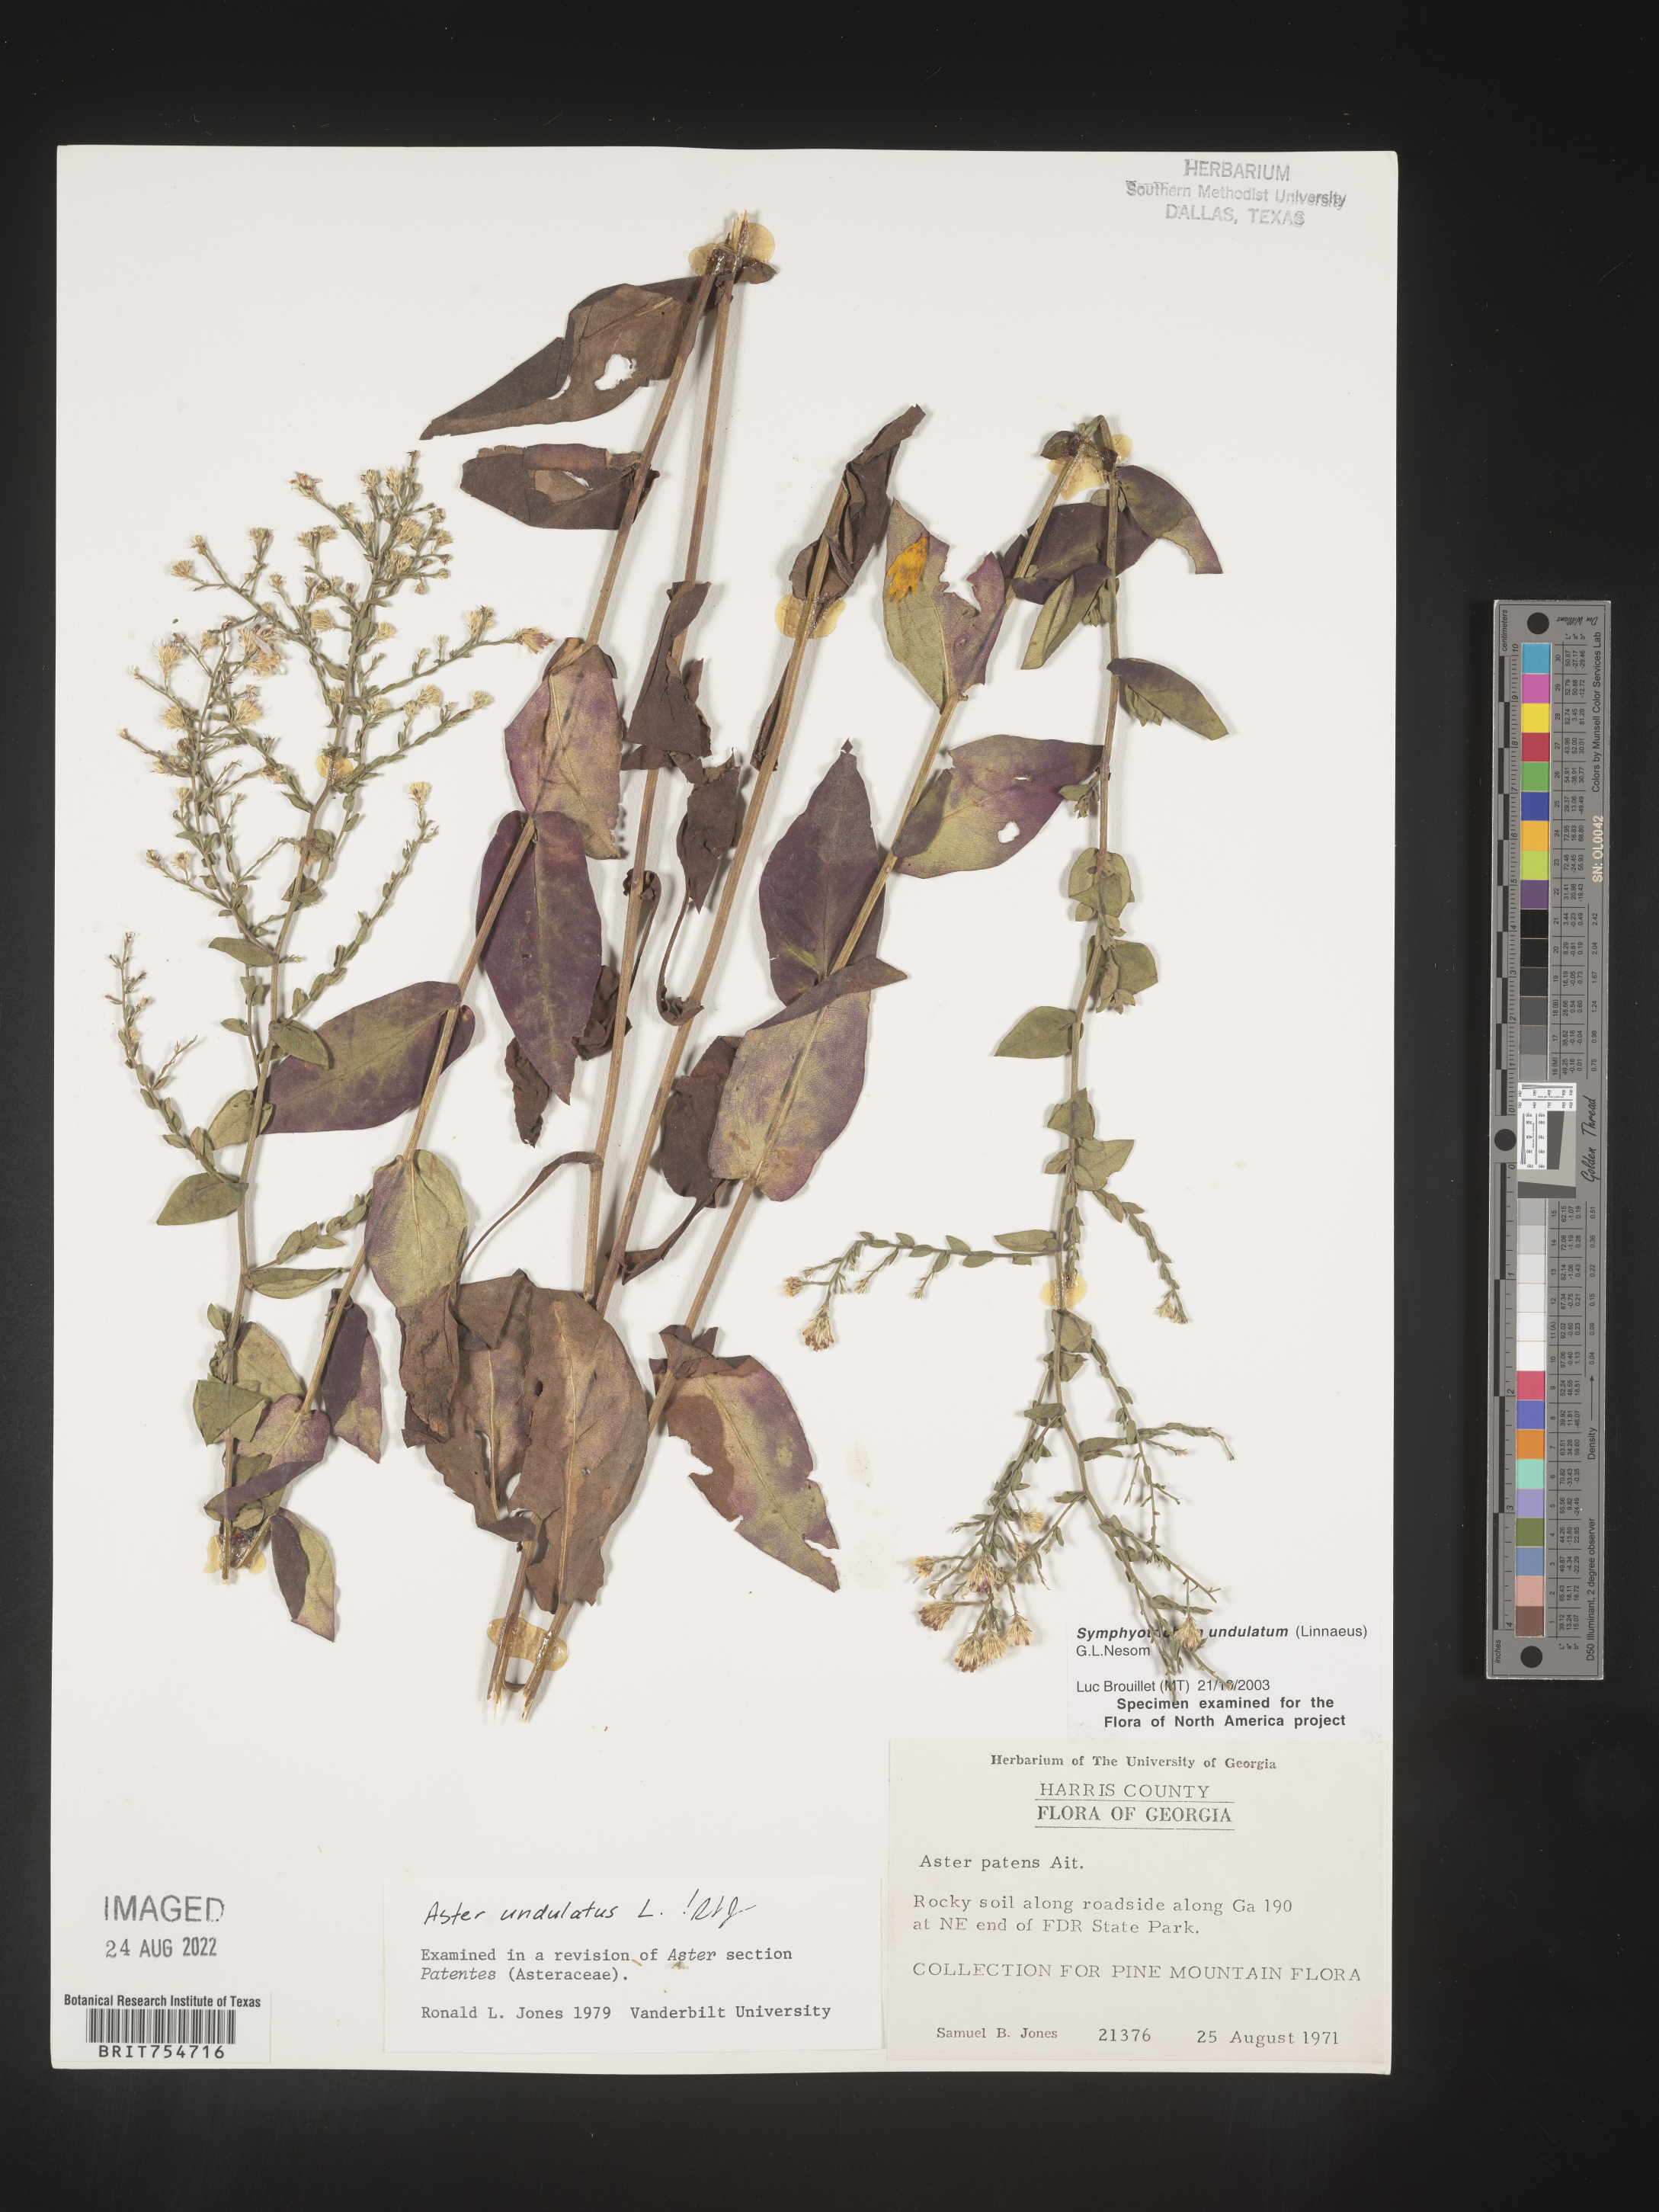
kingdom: Plantae
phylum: Tracheophyta
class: Magnoliopsida
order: Asterales
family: Asteraceae
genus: Symphyotrichum
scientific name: Symphyotrichum undulatum
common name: Clasping heart-leaf aster
